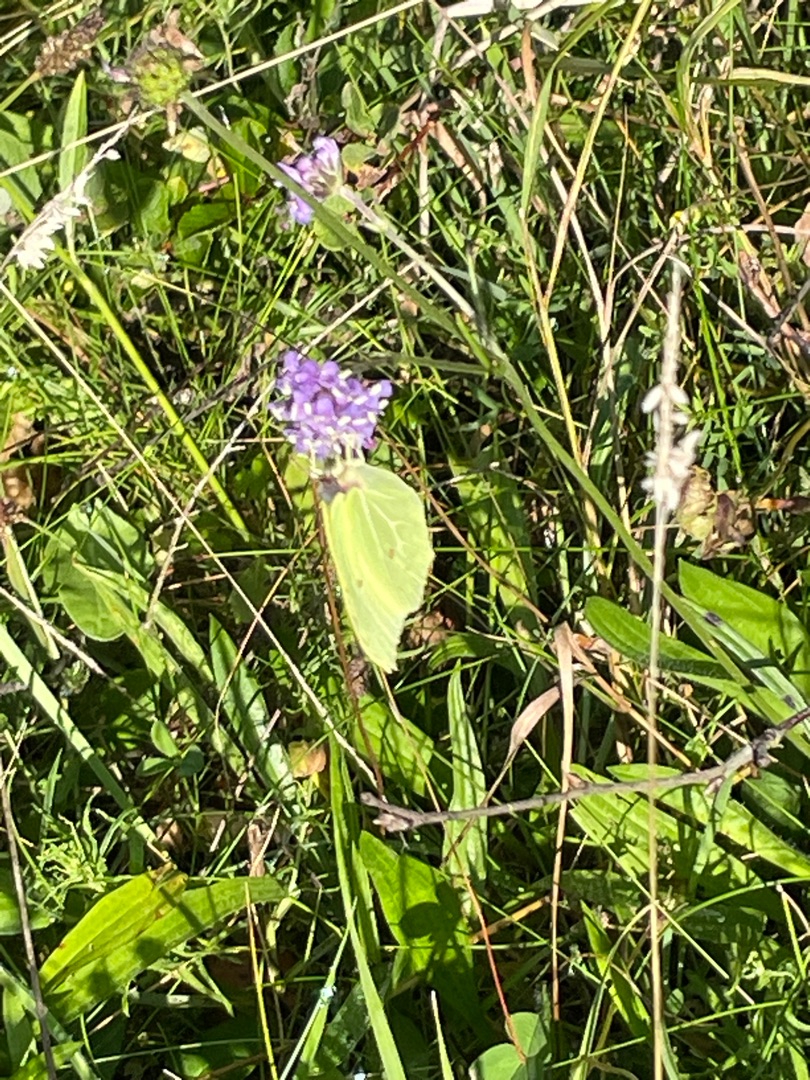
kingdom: Animalia
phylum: Arthropoda
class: Insecta
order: Lepidoptera
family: Pieridae
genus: Gonepteryx
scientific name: Gonepteryx rhamni
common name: Citronsommerfugl
